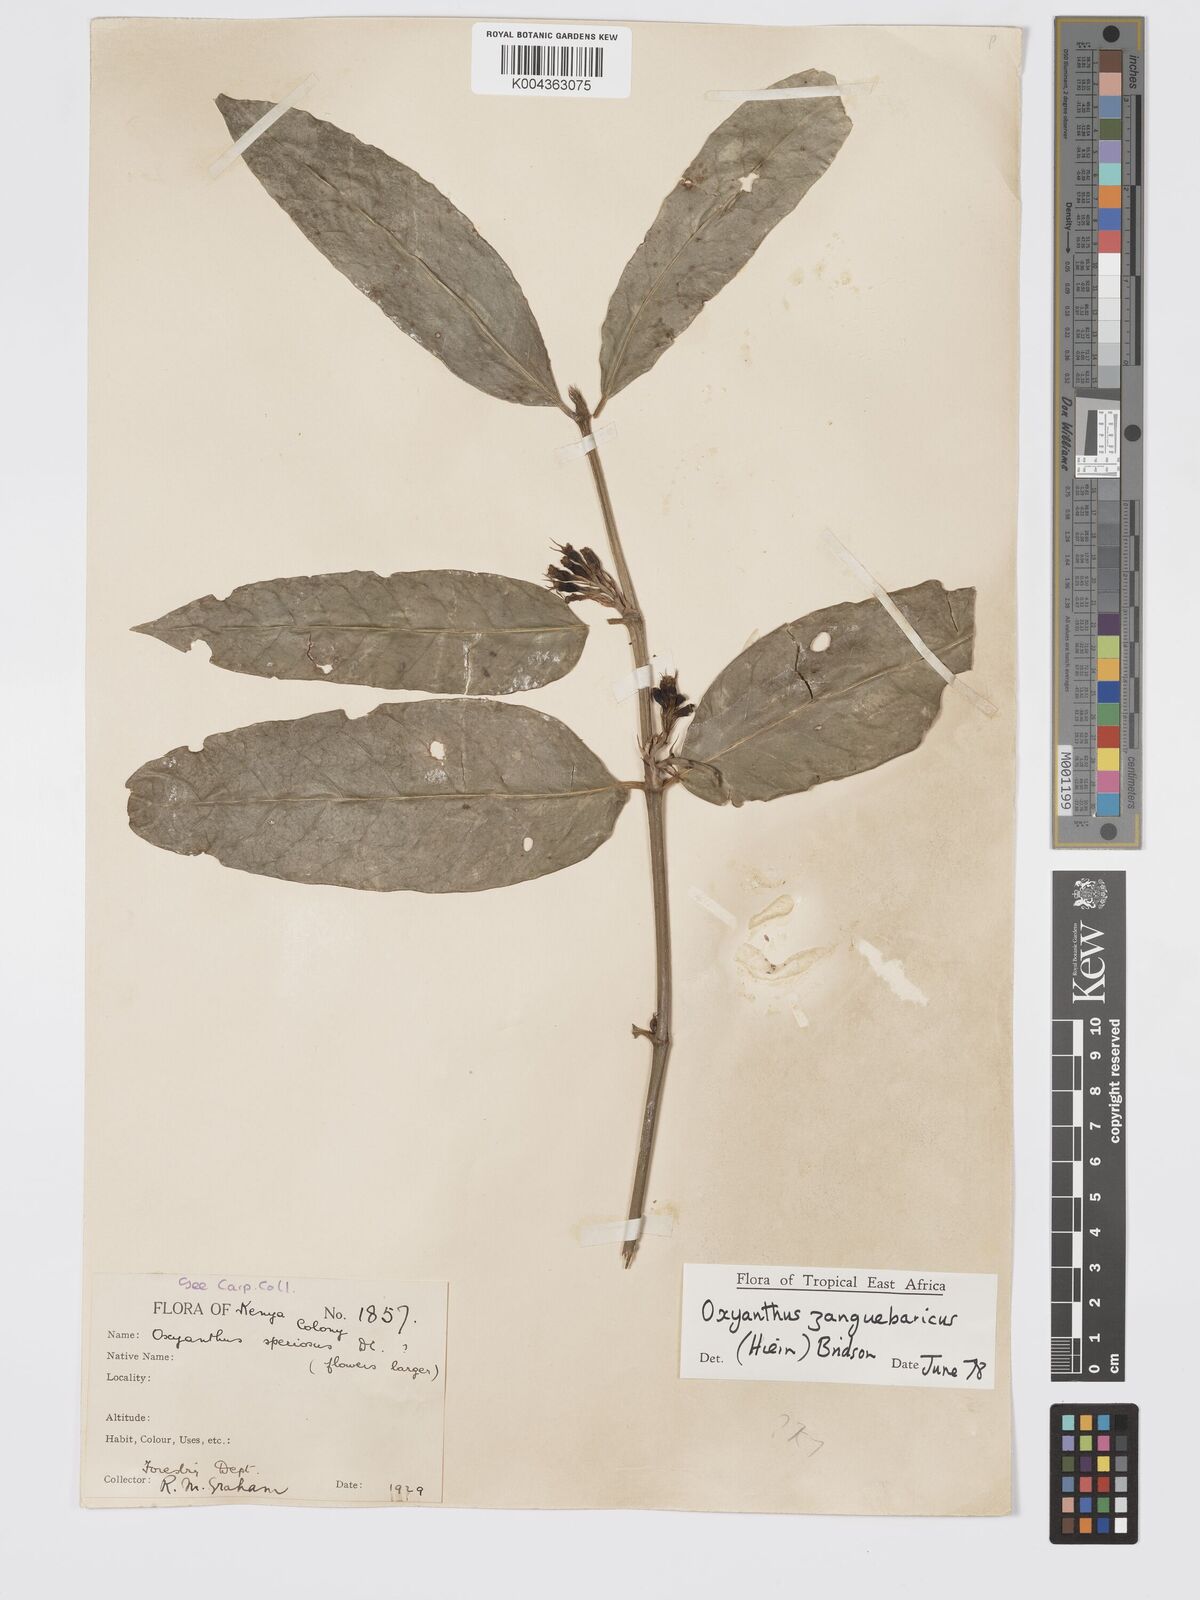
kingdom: Plantae
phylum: Tracheophyta
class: Magnoliopsida
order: Gentianales
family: Rubiaceae
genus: Oxyanthus
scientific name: Oxyanthus zanguebaricus
